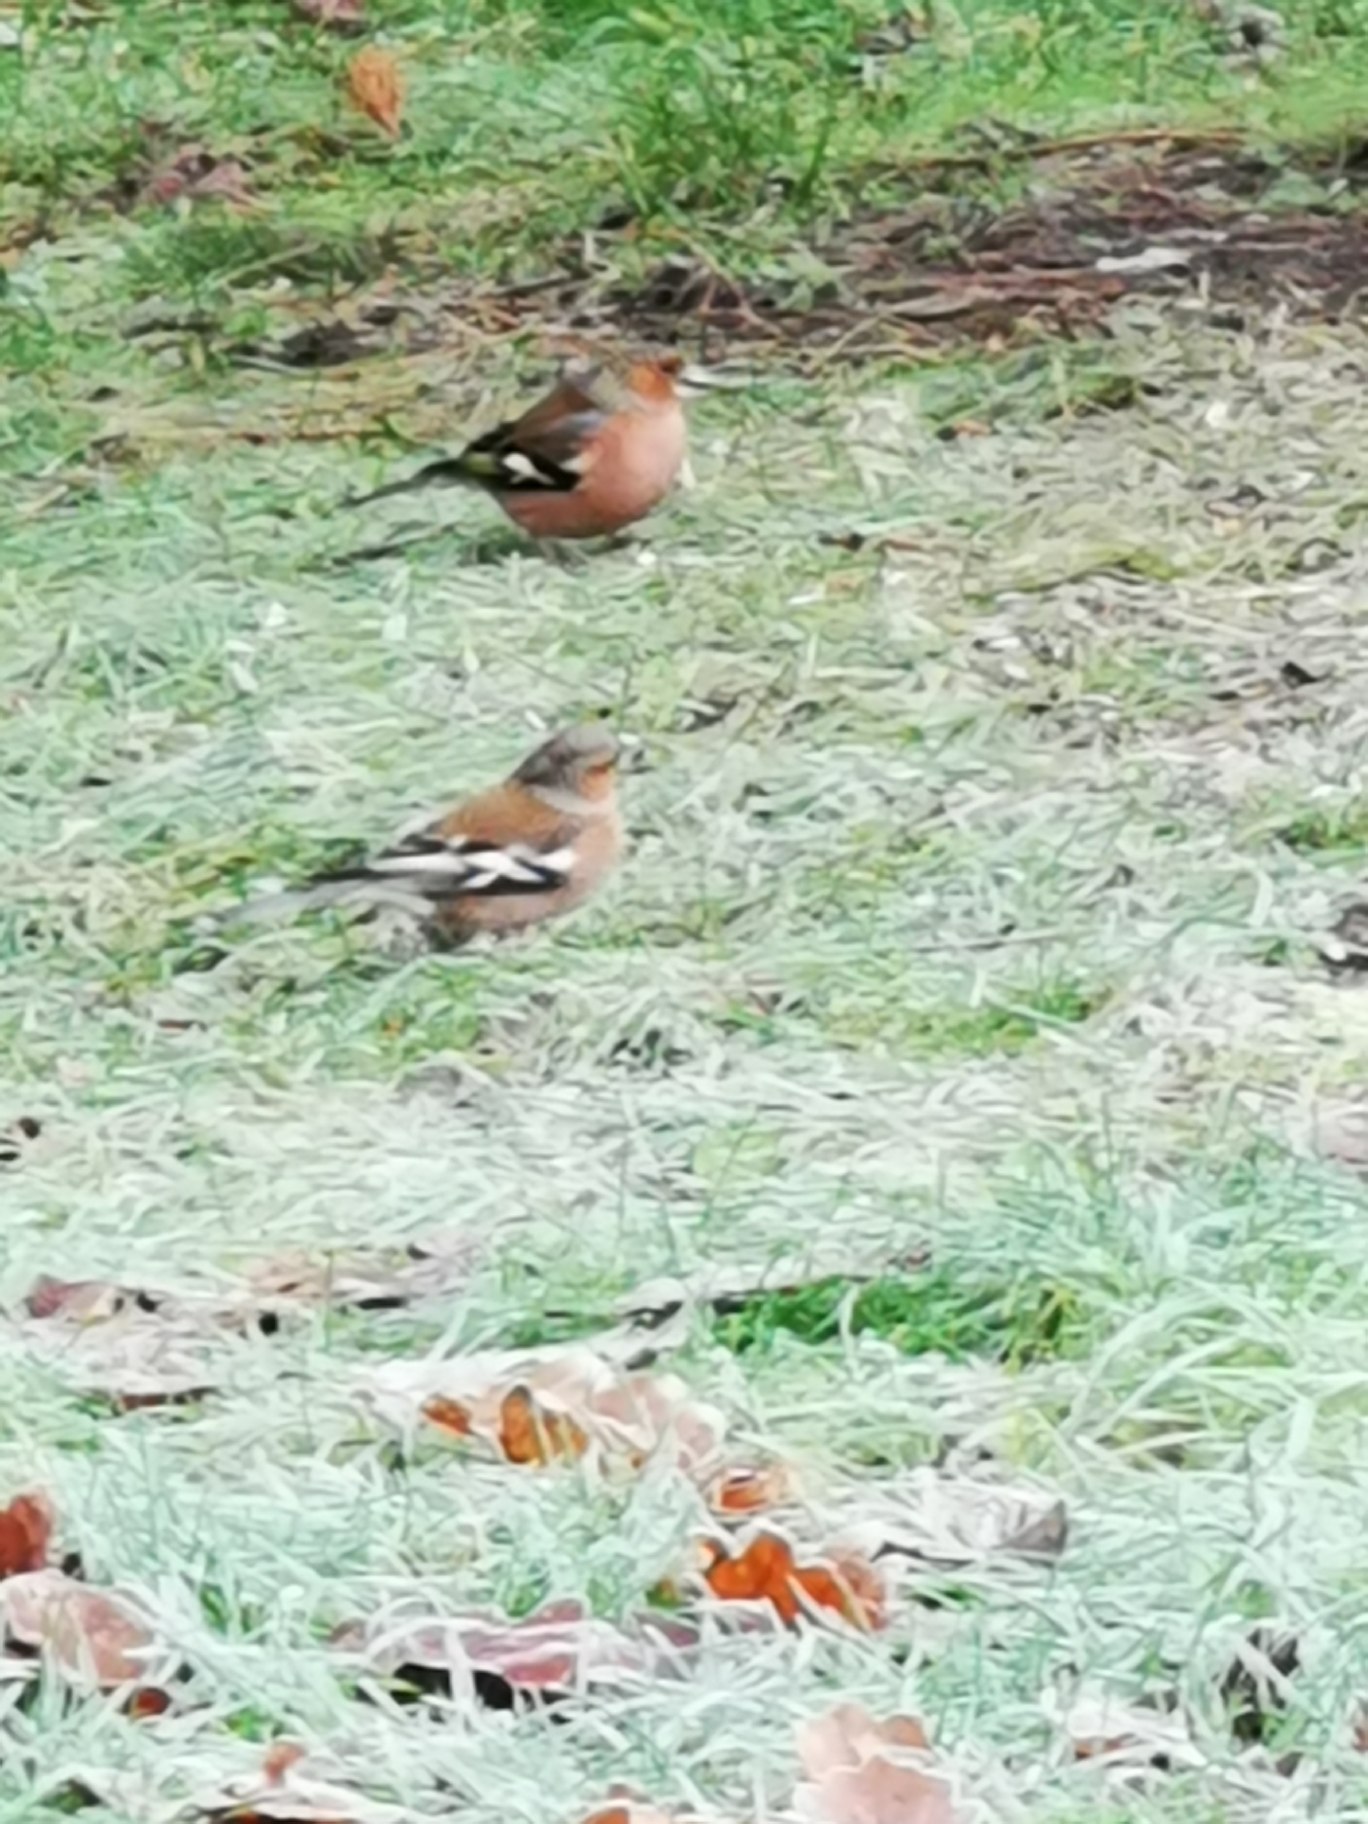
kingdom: Animalia
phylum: Chordata
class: Aves
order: Passeriformes
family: Fringillidae
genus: Fringilla
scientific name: Fringilla coelebs
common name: Bogfinke
